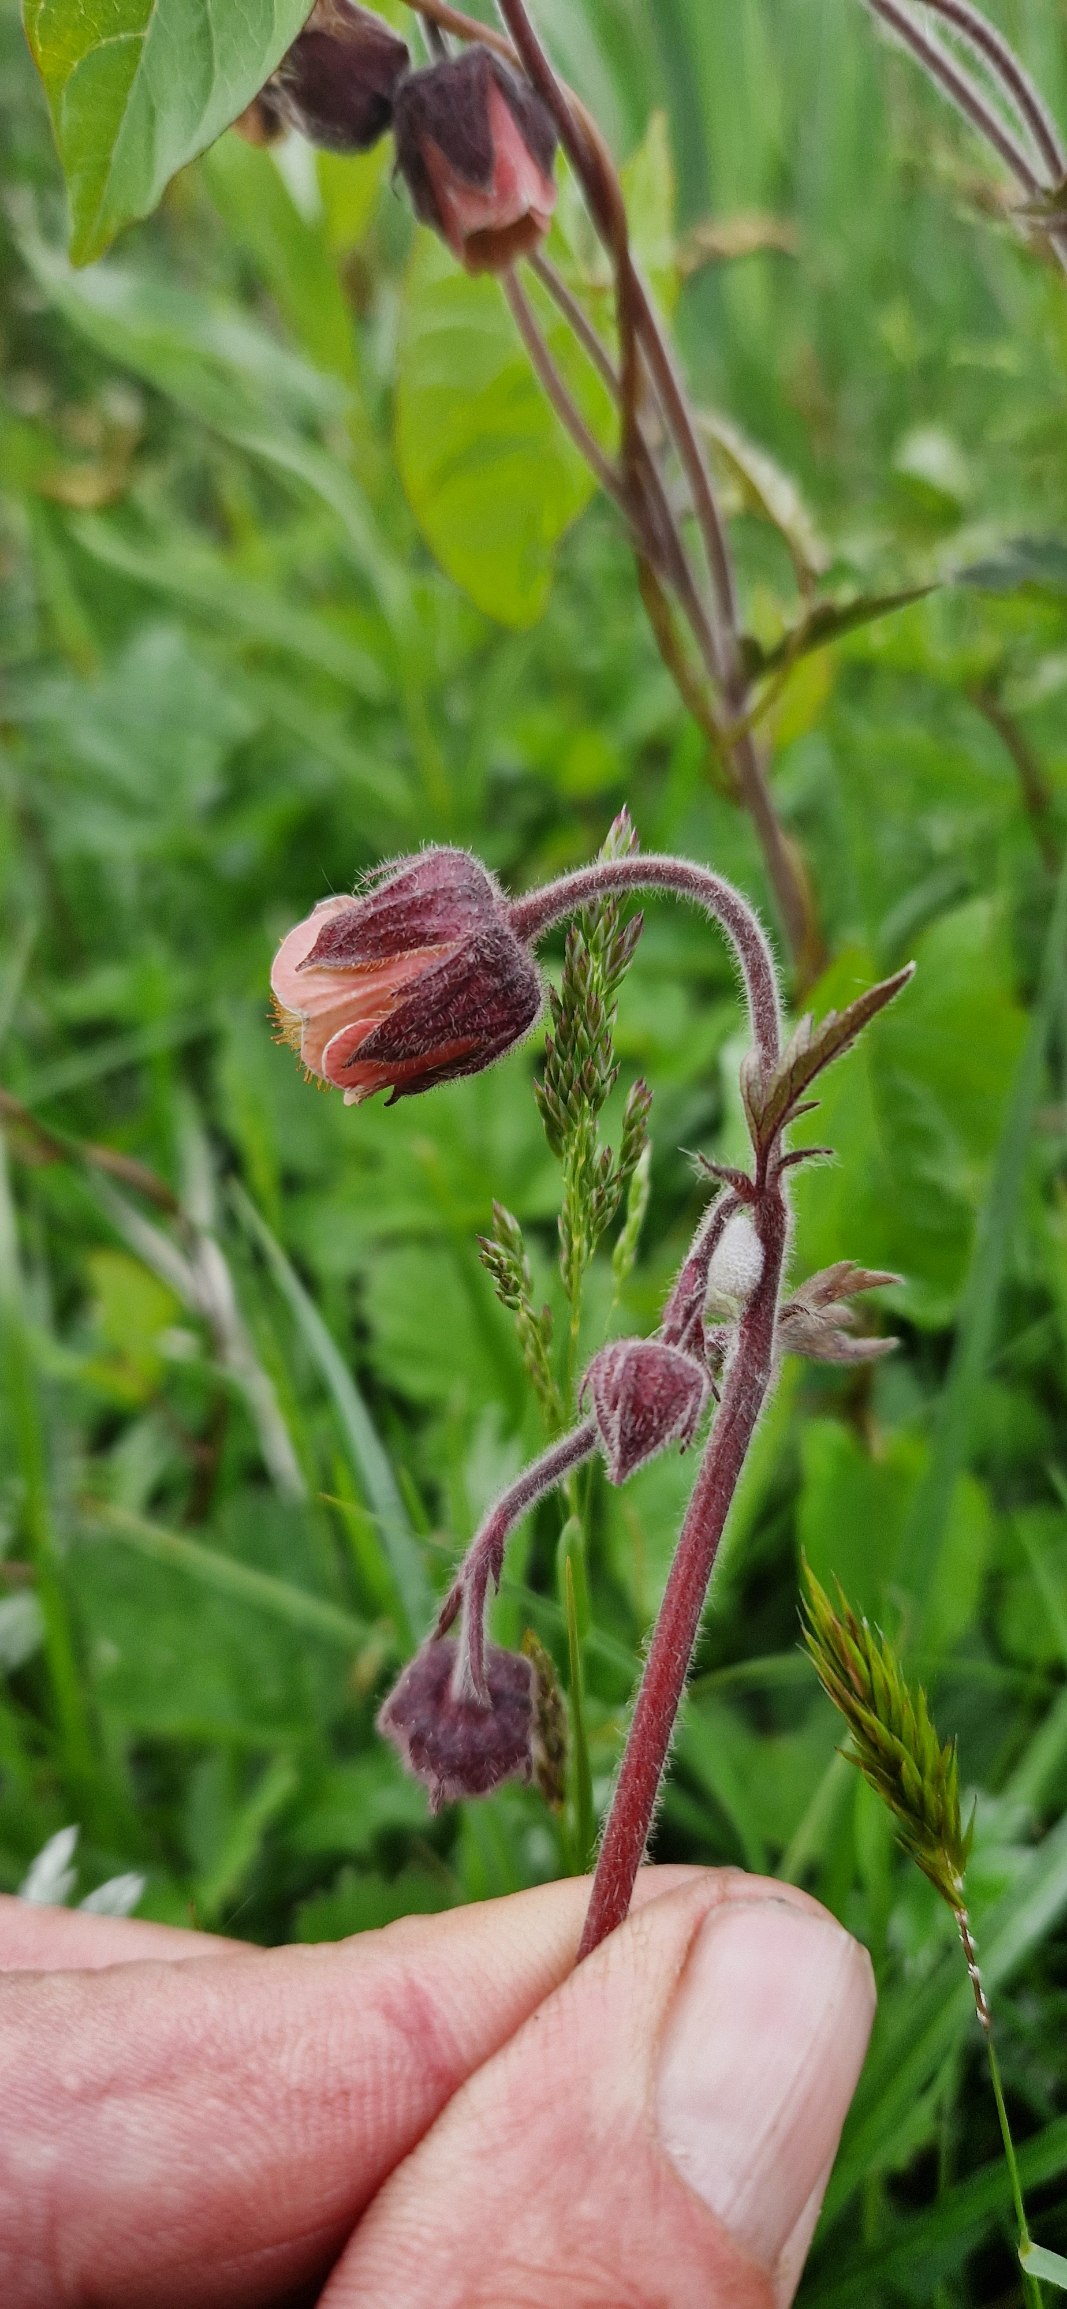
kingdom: Plantae
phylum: Tracheophyta
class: Magnoliopsida
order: Rosales
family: Rosaceae
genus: Geum
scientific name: Geum rivale
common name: Eng-nellikerod
